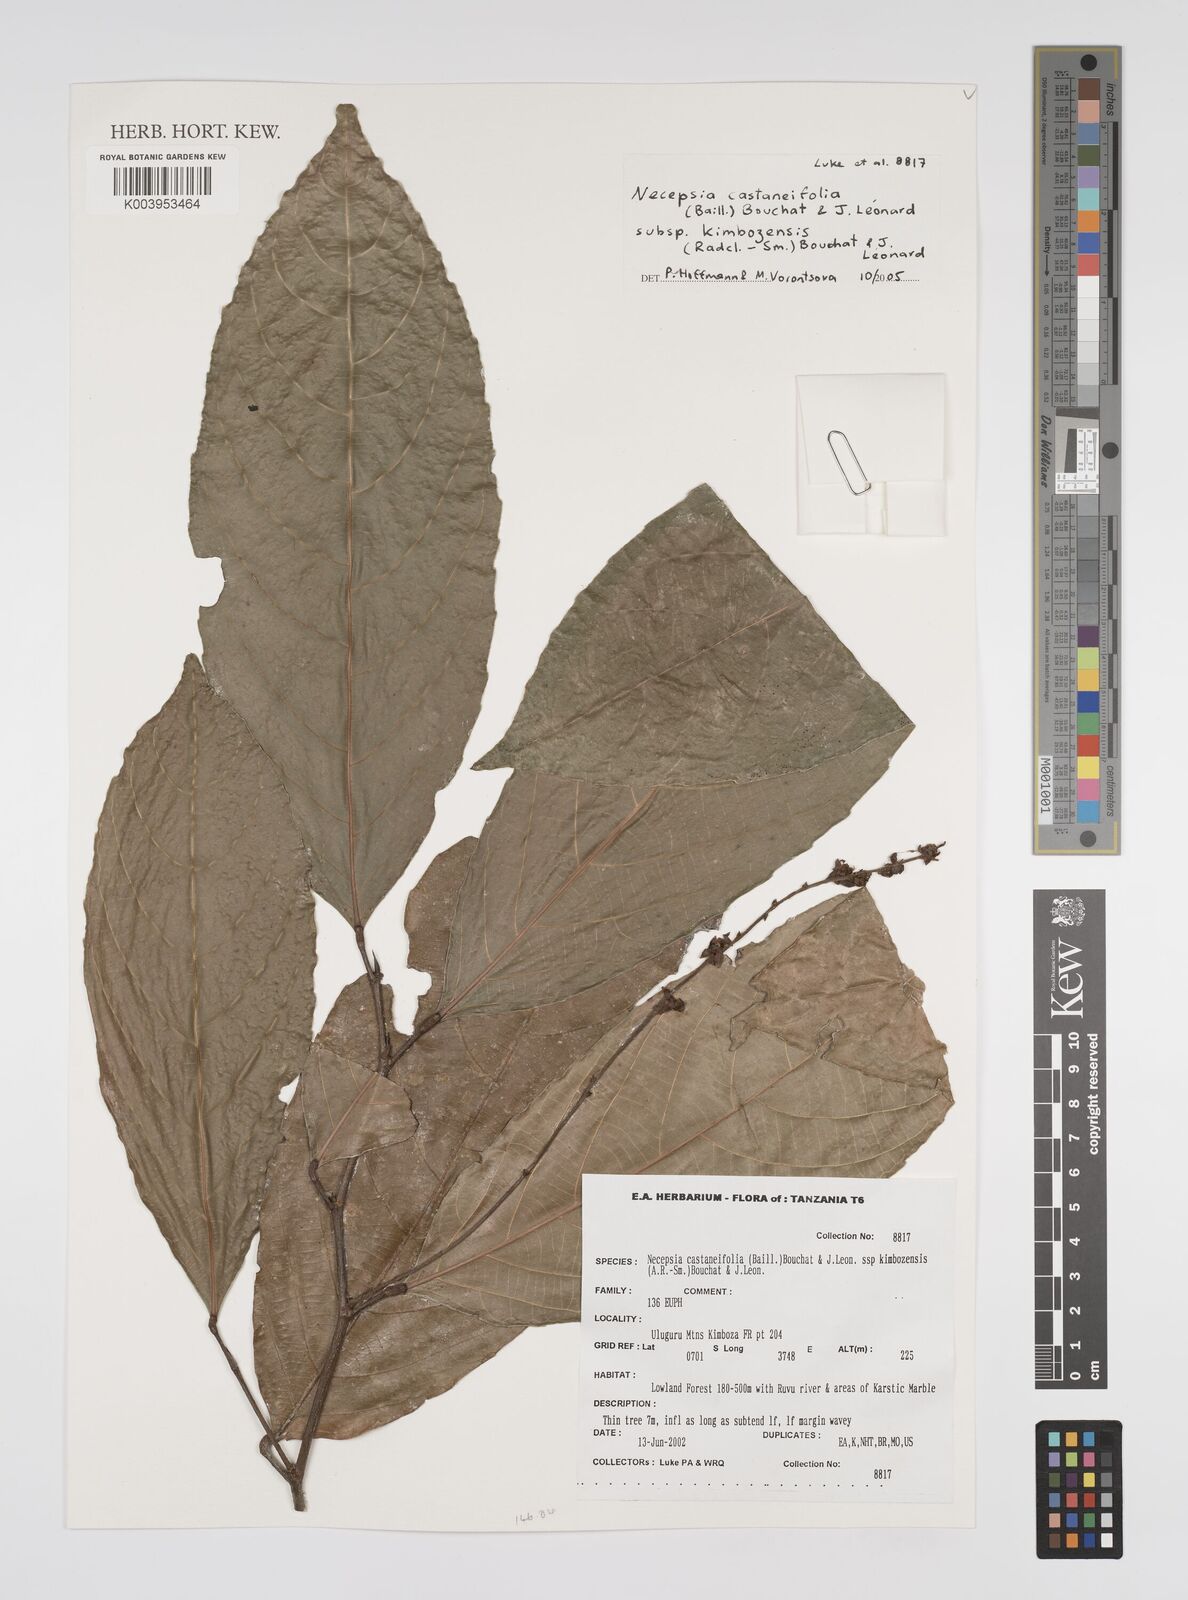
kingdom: Plantae
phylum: Tracheophyta
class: Magnoliopsida
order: Malpighiales
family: Euphorbiaceae
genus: Necepsia
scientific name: Necepsia castaneifolia
